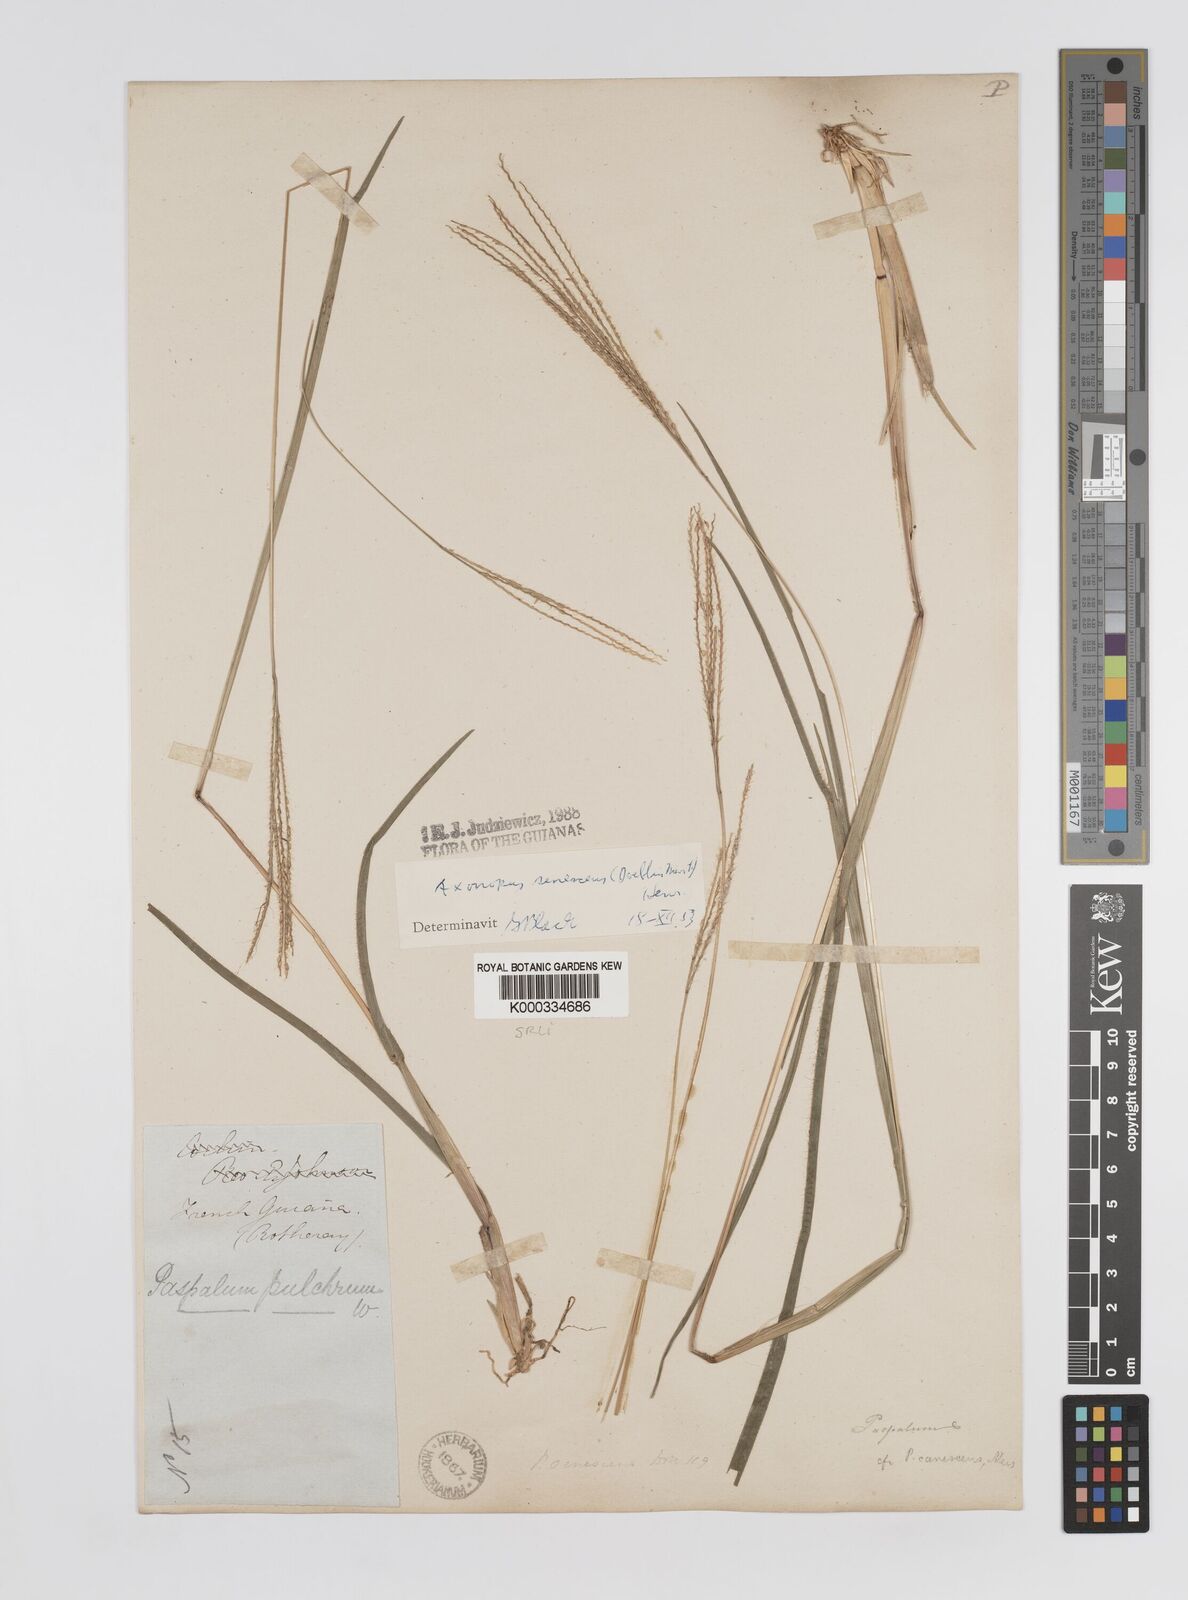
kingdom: Plantae
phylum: Tracheophyta
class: Liliopsida
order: Poales
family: Poaceae
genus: Axonopus
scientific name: Axonopus
